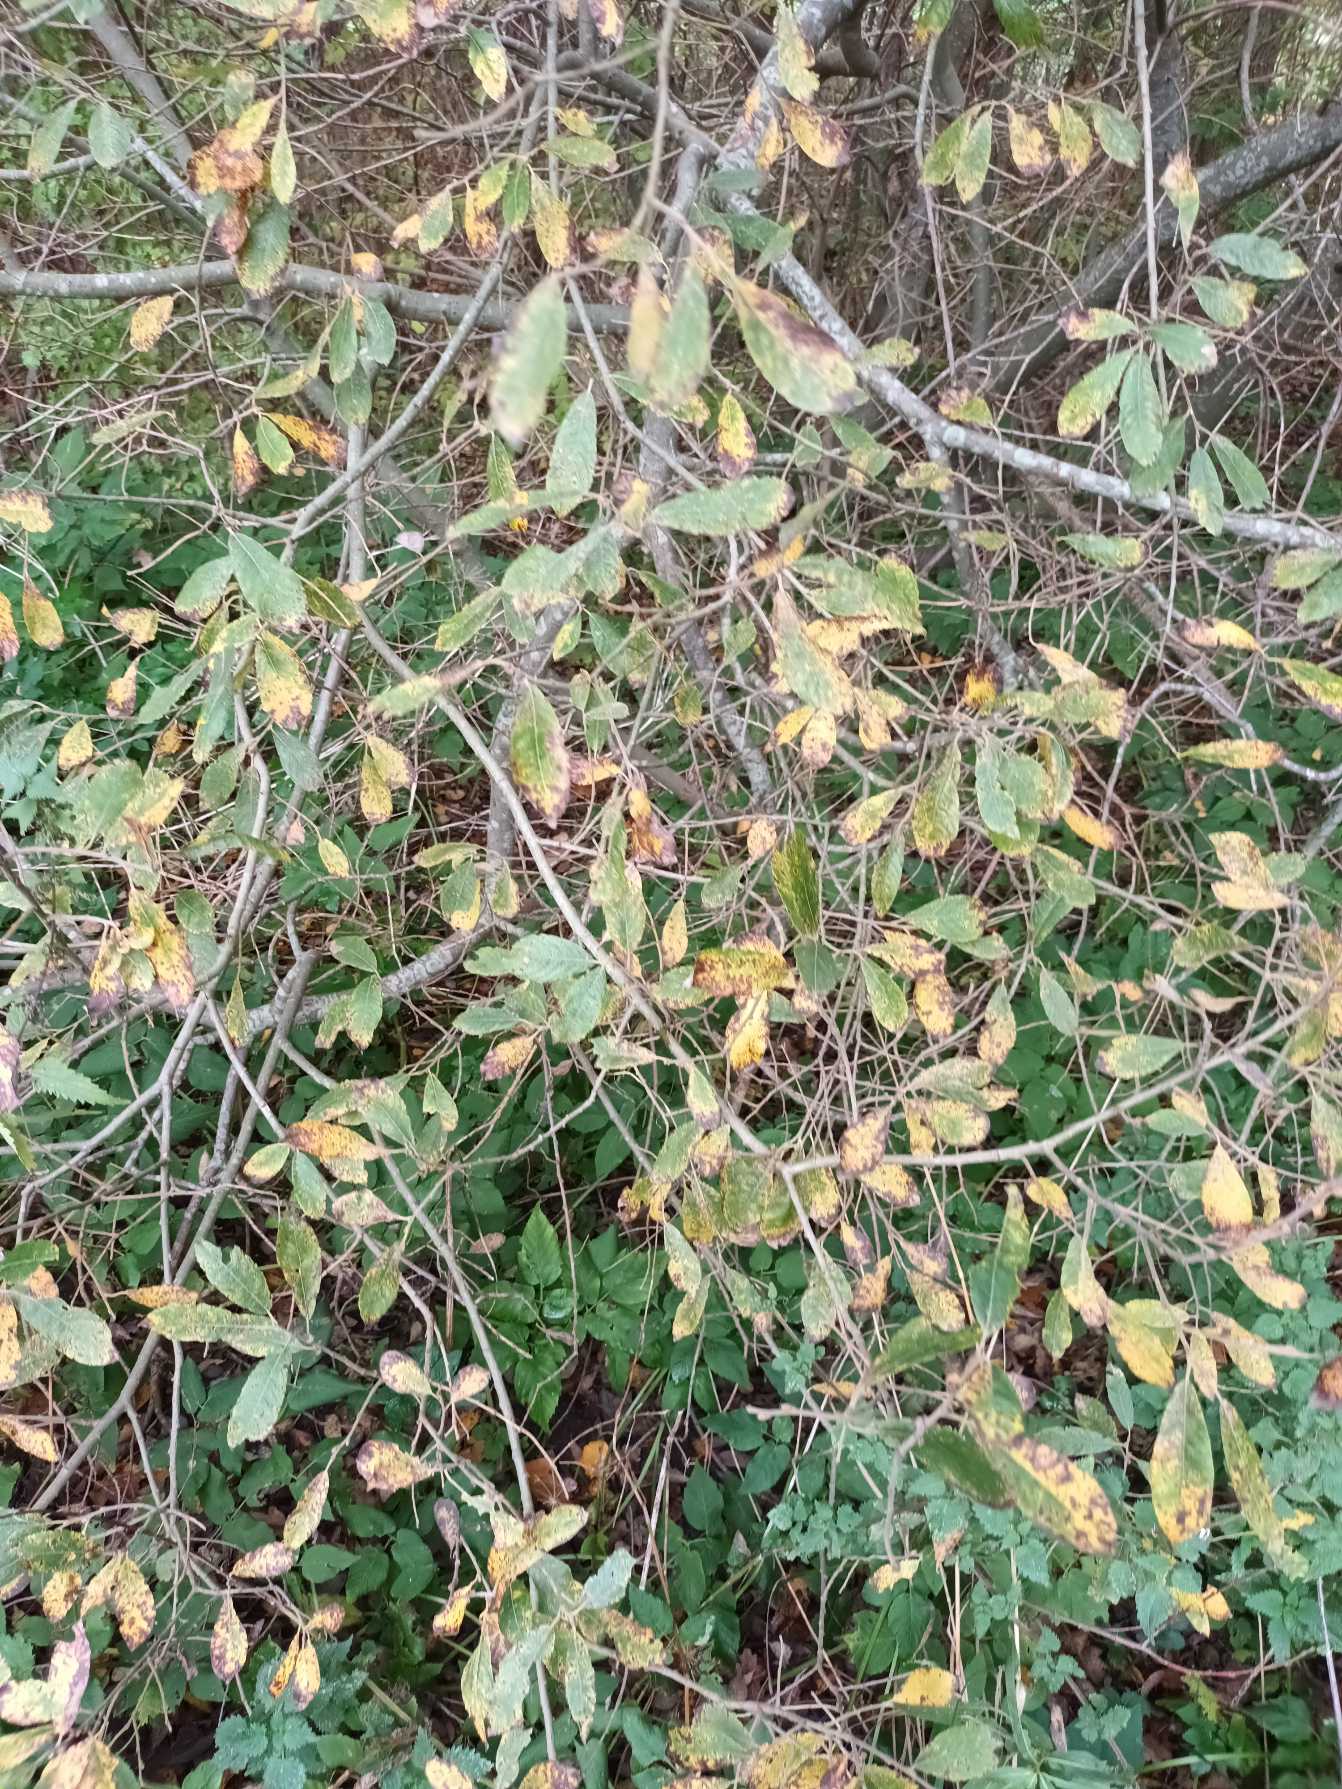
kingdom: Plantae
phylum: Tracheophyta
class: Magnoliopsida
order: Malpighiales
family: Salicaceae
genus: Salix
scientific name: Salix cinerea
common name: Grå-pil
